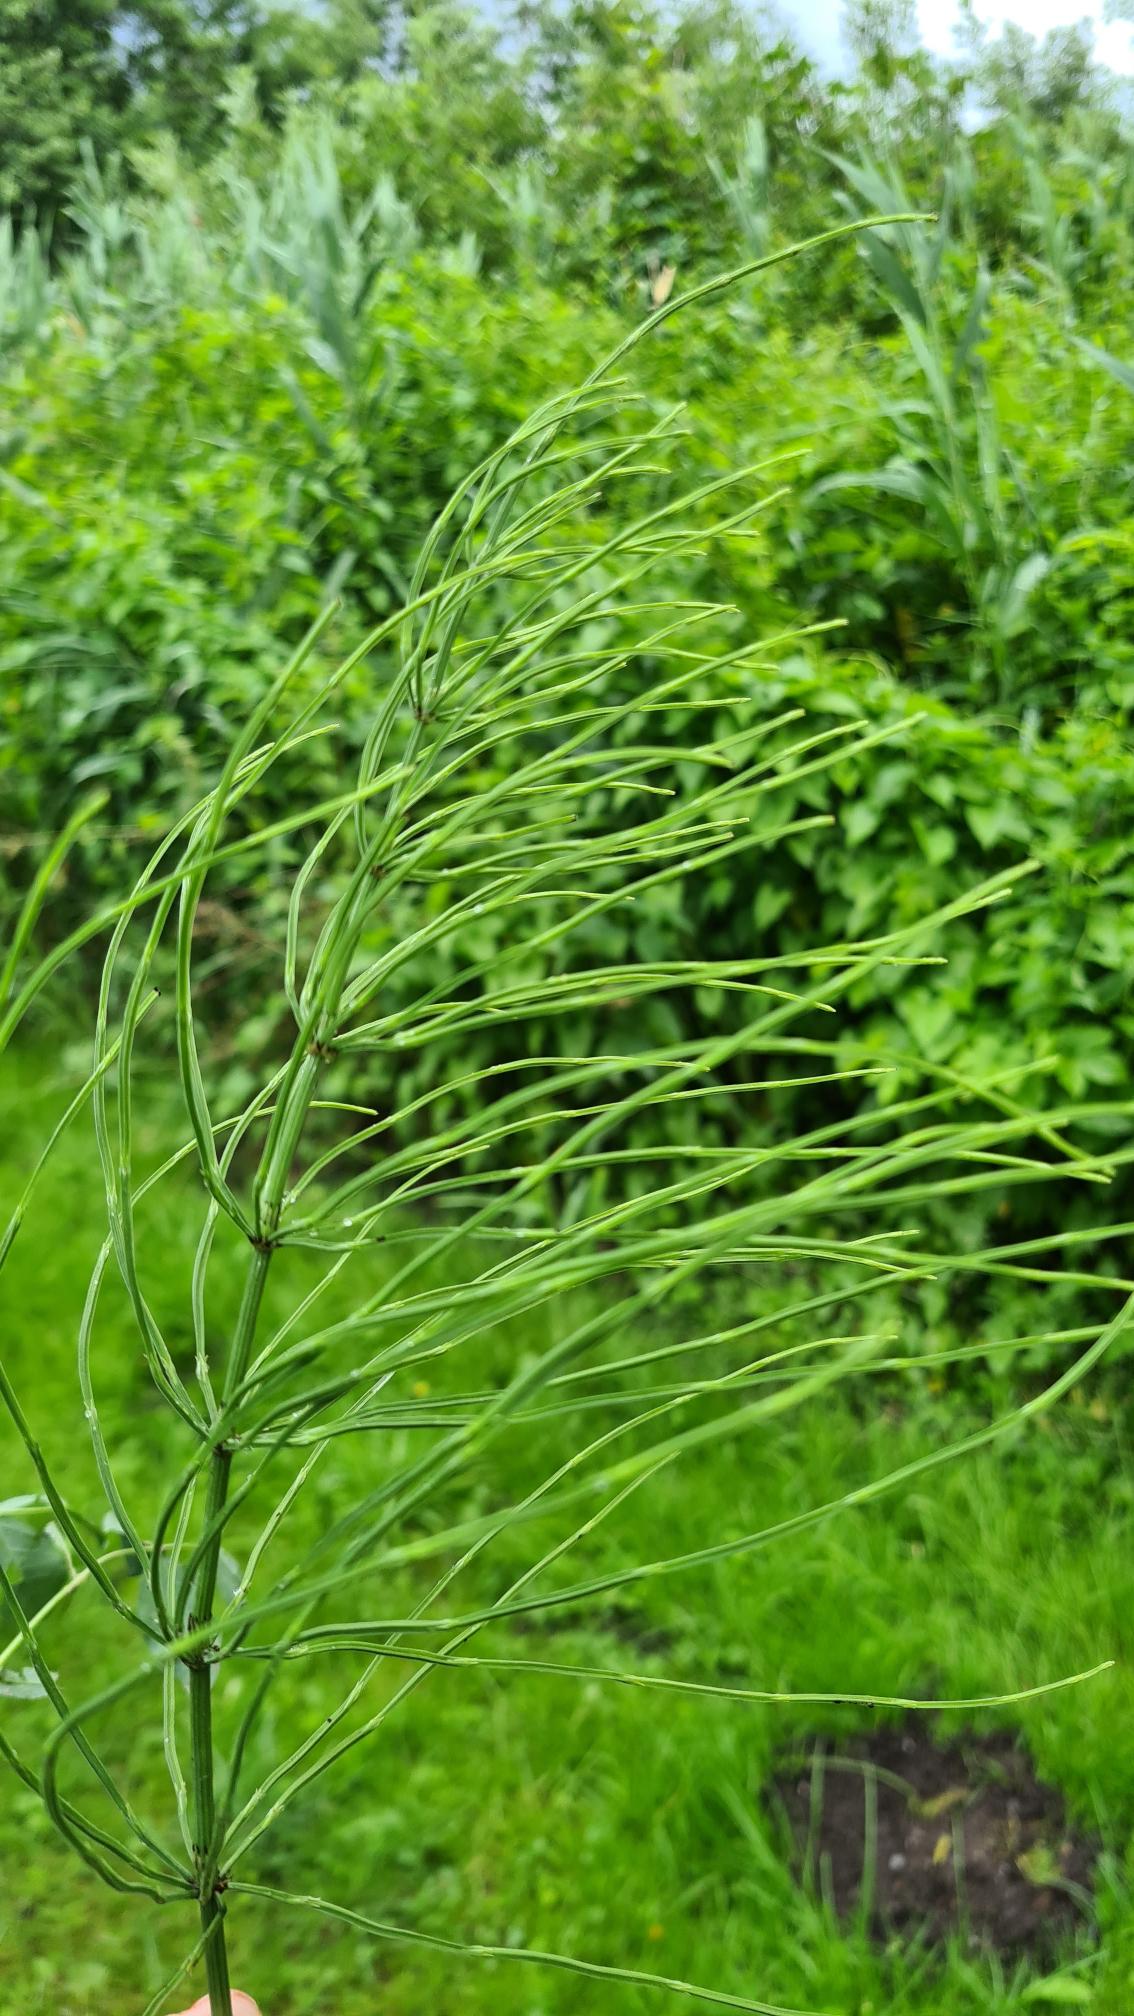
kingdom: Plantae
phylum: Tracheophyta
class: Polypodiopsida
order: Equisetales
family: Equisetaceae
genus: Equisetum
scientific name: Equisetum arvense
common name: Ager-padderok
